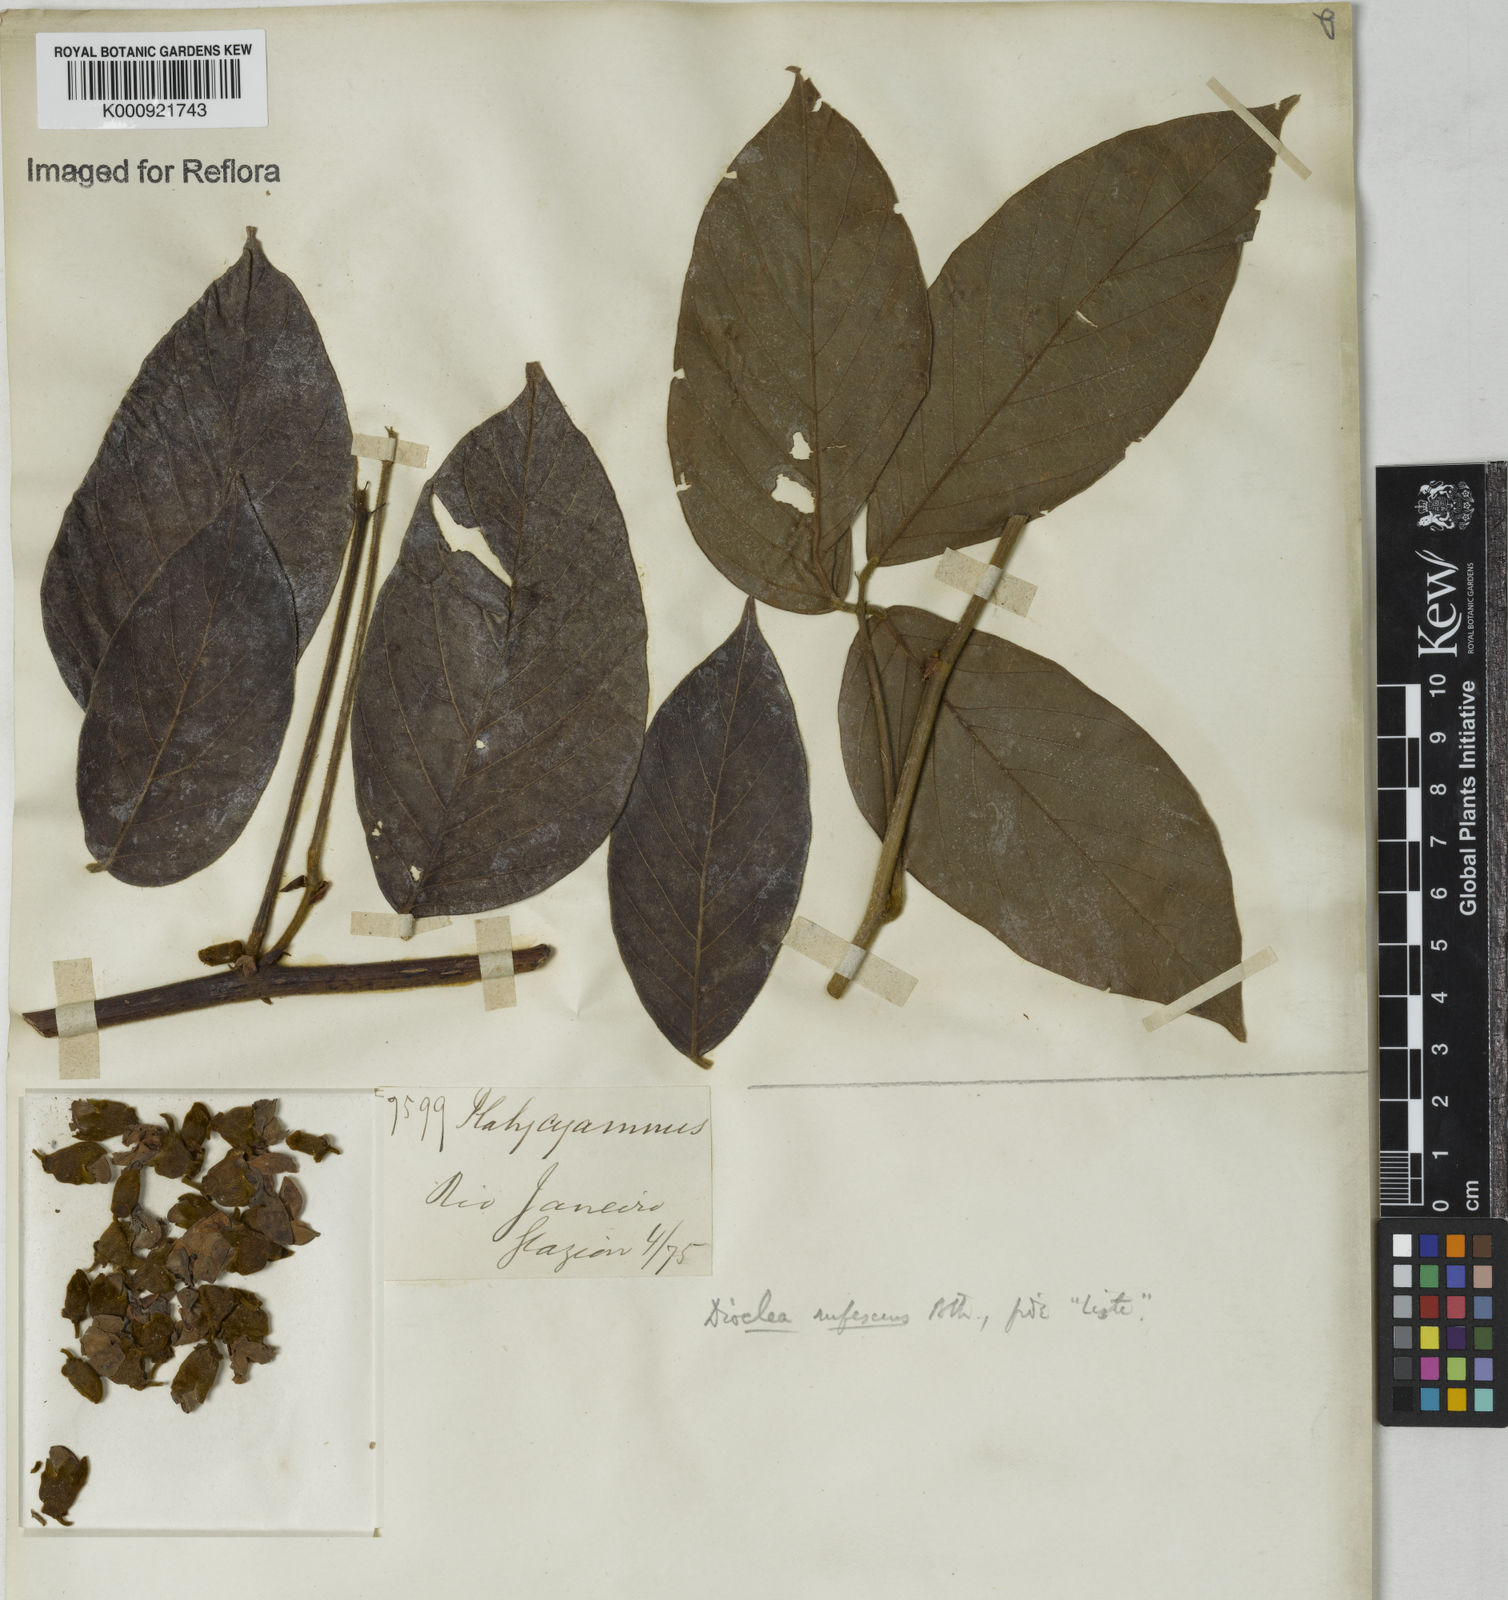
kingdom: Plantae
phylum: Tracheophyta
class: Magnoliopsida
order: Fabales
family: Fabaceae
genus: Macropsychanthus
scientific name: Macropsychanthus rufescens
